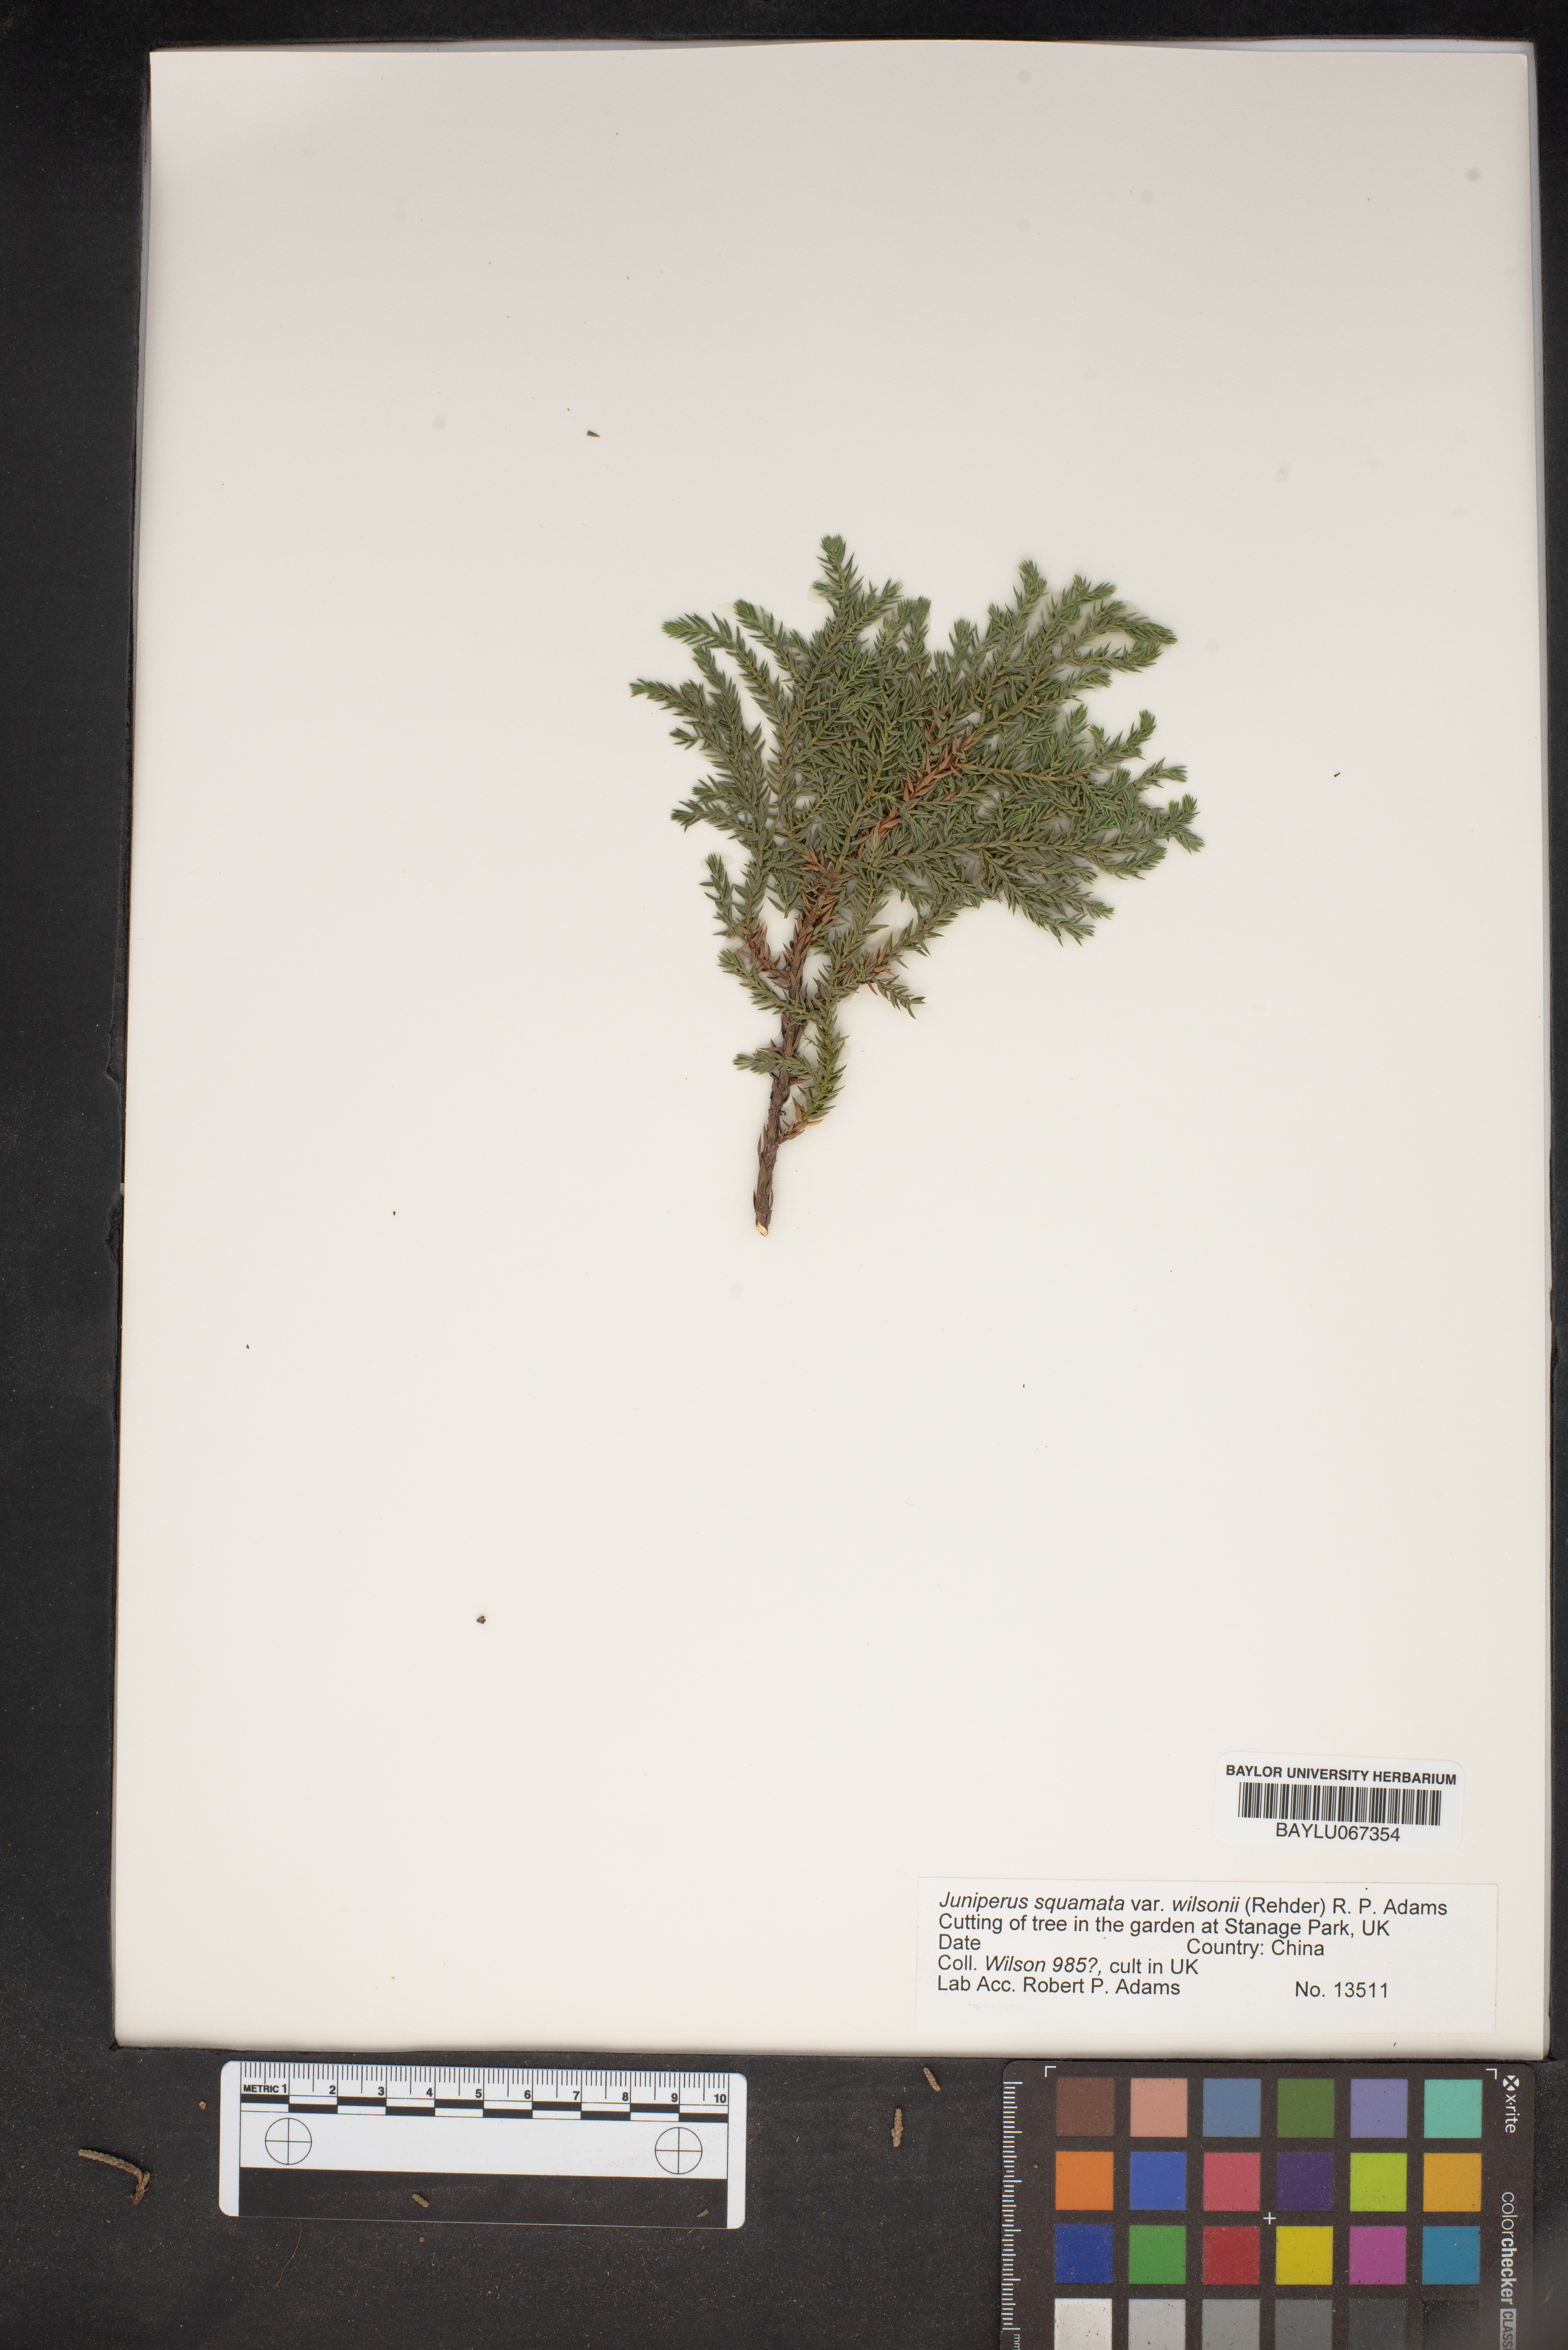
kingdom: Plantae
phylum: Tracheophyta
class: Pinopsida
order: Pinales
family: Cupressaceae
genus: Juniperus
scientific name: Juniperus pingii
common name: Ping's juniper
